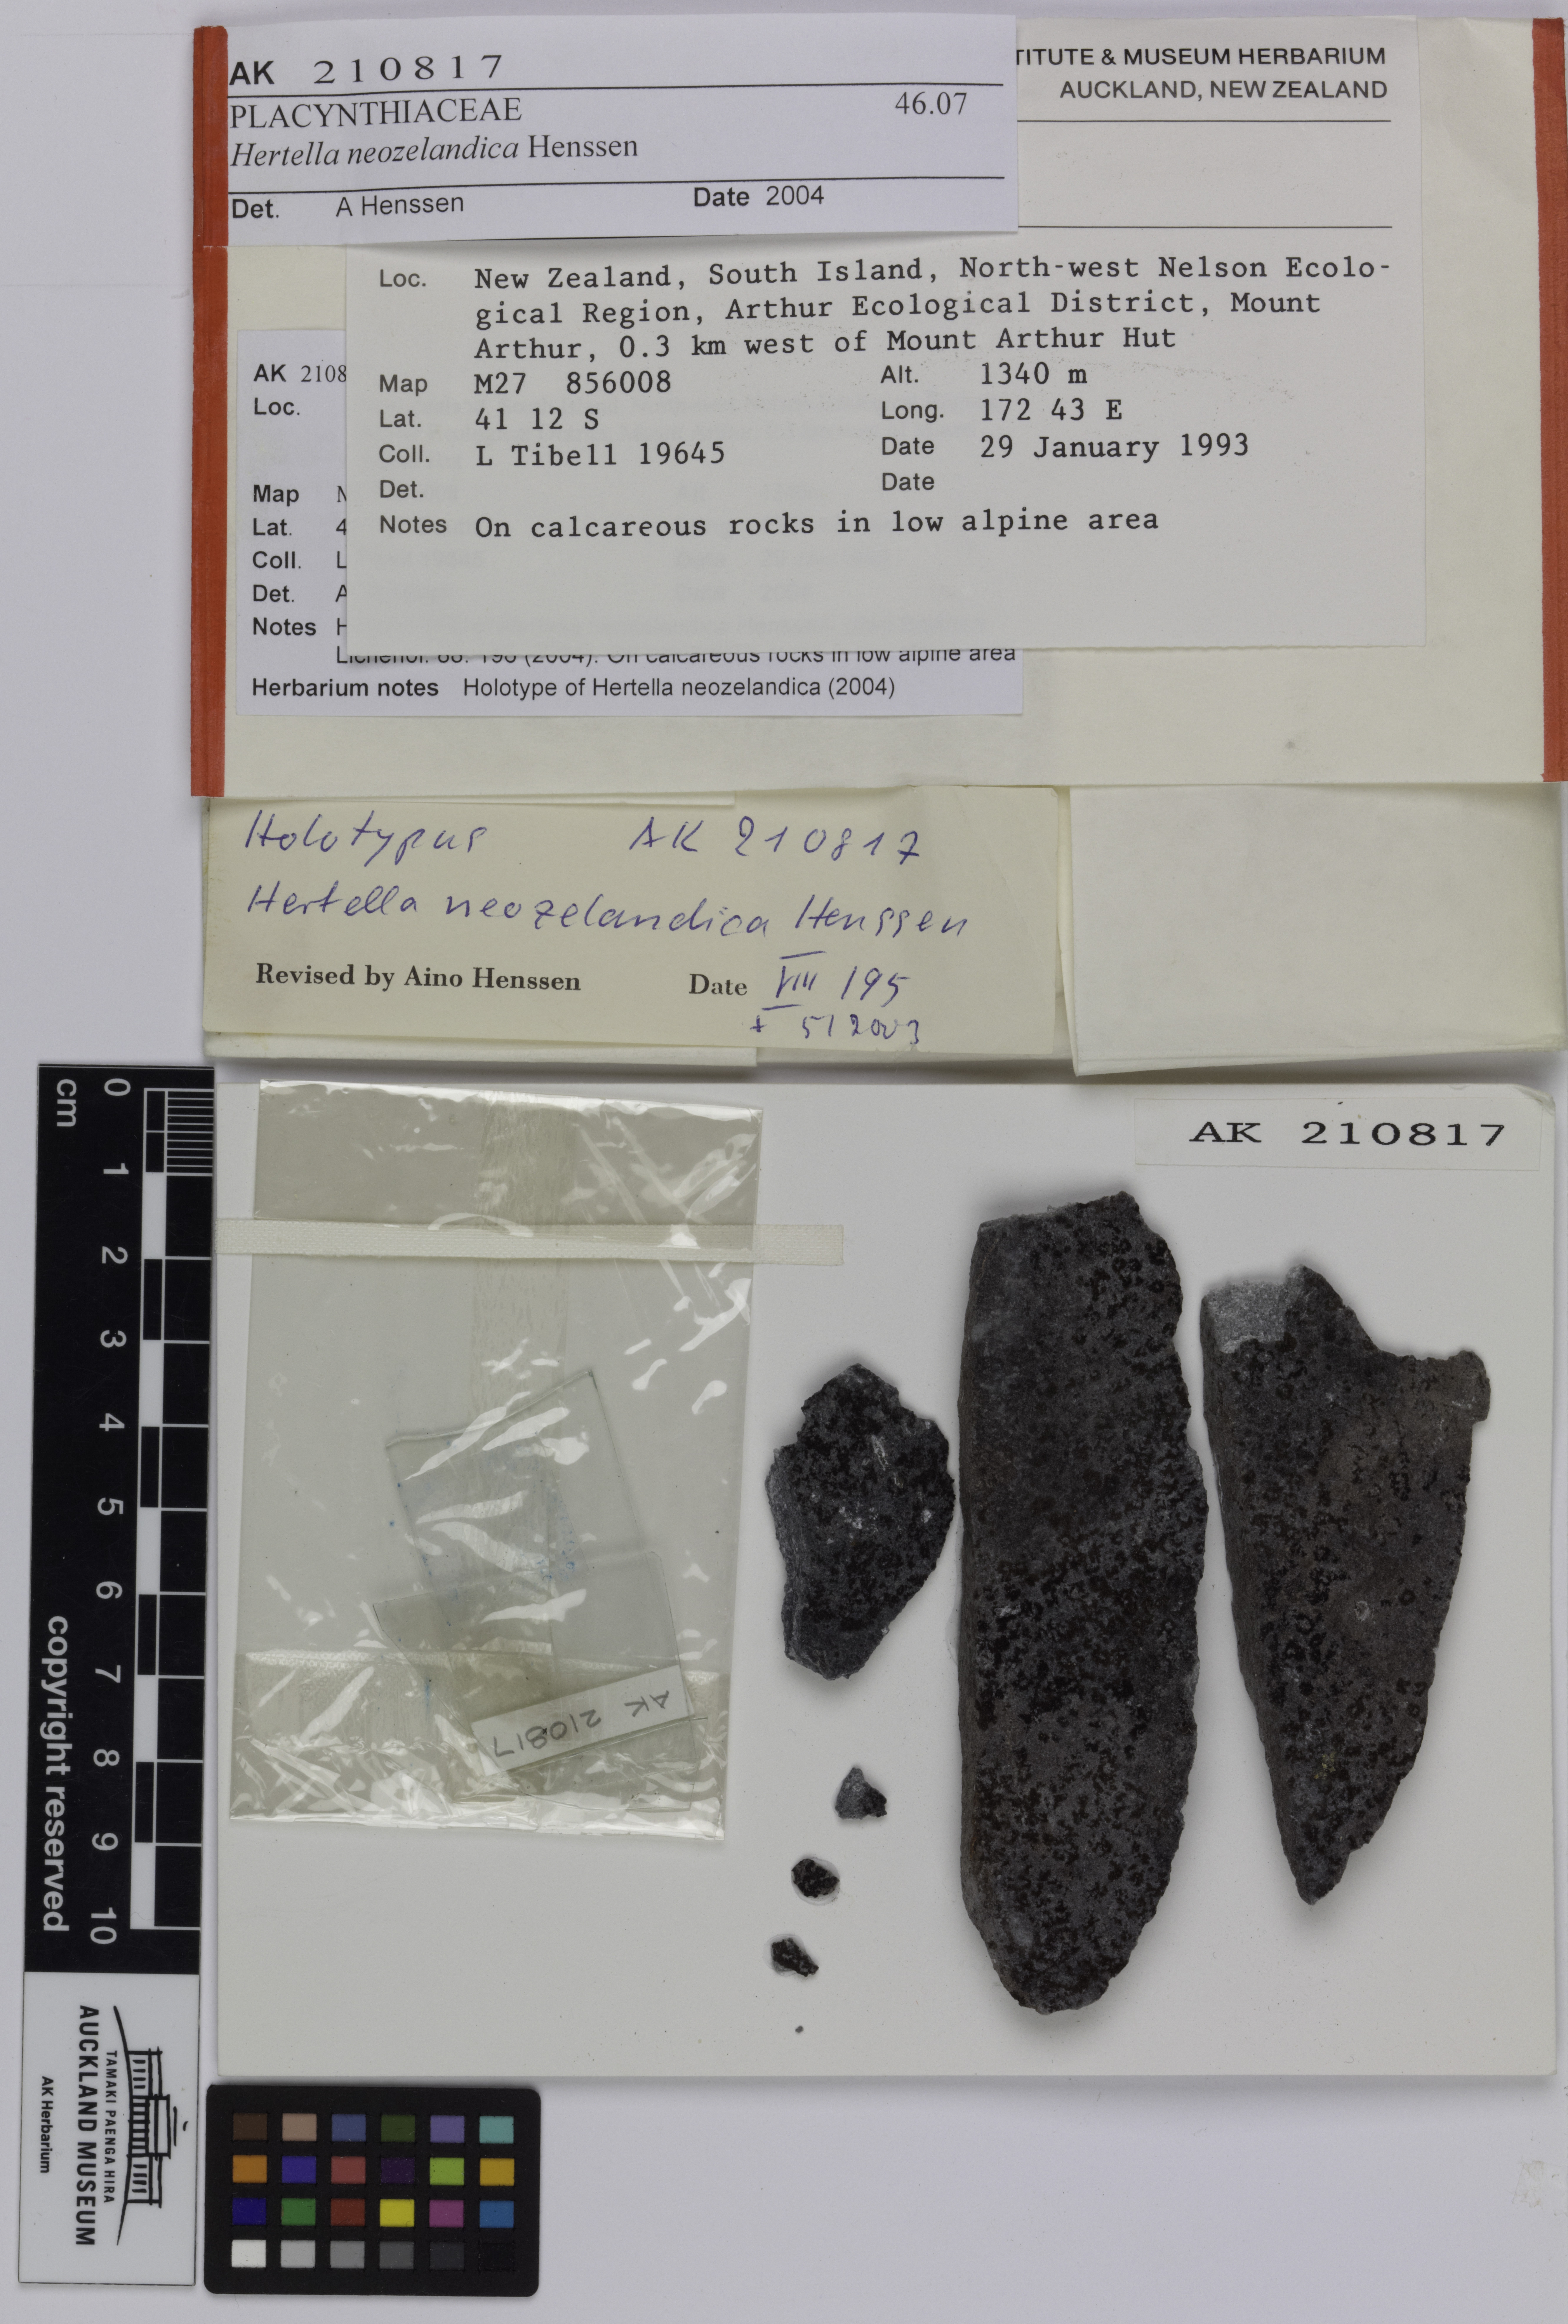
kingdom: Fungi
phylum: Ascomycota
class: Lecanoromycetes
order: Peltigerales
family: Placynthiaceae
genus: Hertella
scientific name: Hertella neozelandica
